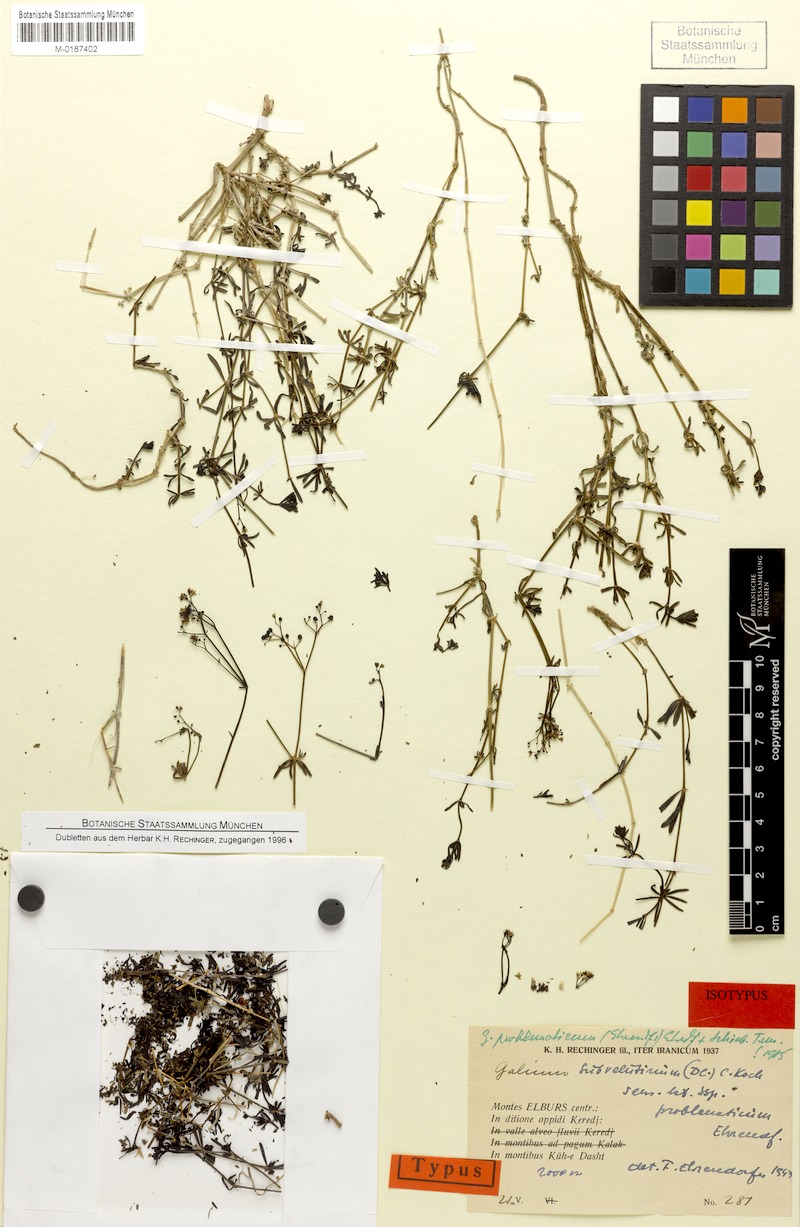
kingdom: Plantae
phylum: Tracheophyta
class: Magnoliopsida
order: Gentianales
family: Rubiaceae
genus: Galium
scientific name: Galium problematicum
